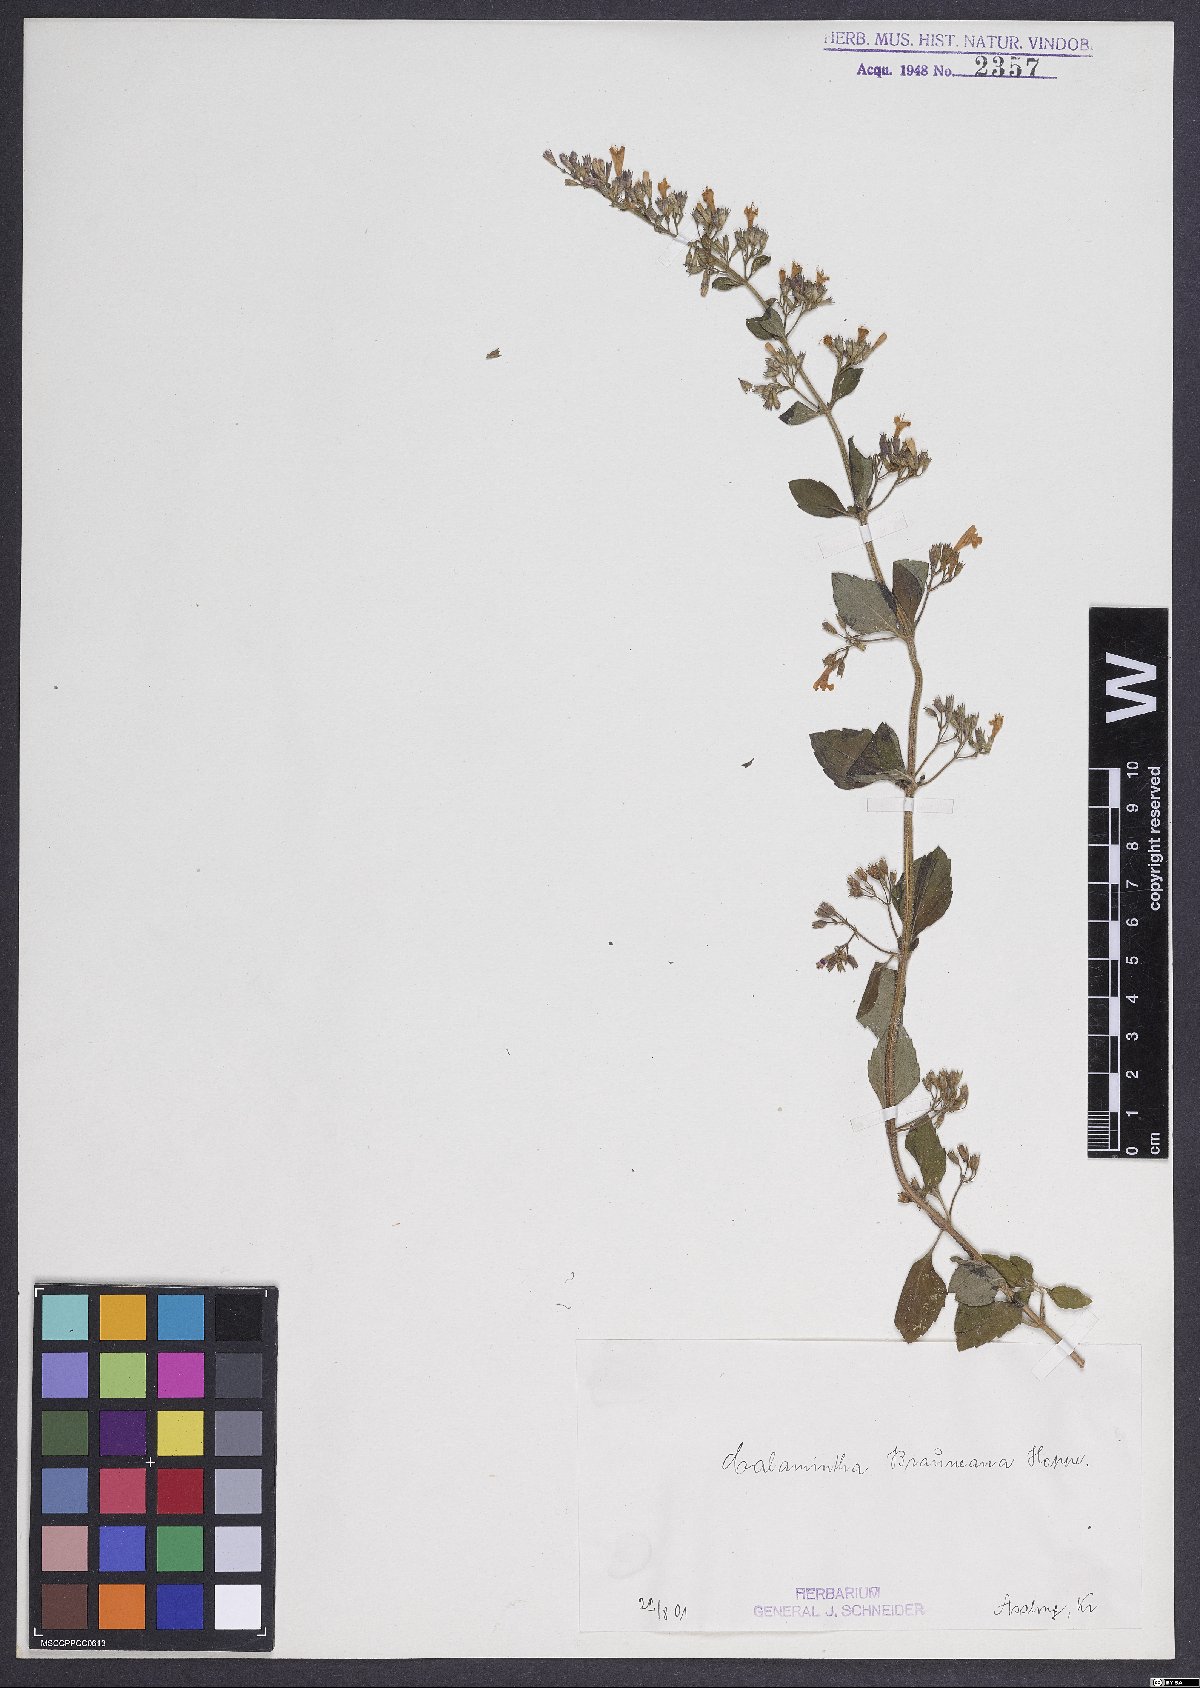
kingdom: Plantae
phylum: Tracheophyta
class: Magnoliopsida
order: Lamiales
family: Lamiaceae
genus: Clinopodium
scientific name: Clinopodium nepeta
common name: Lesser calamint
